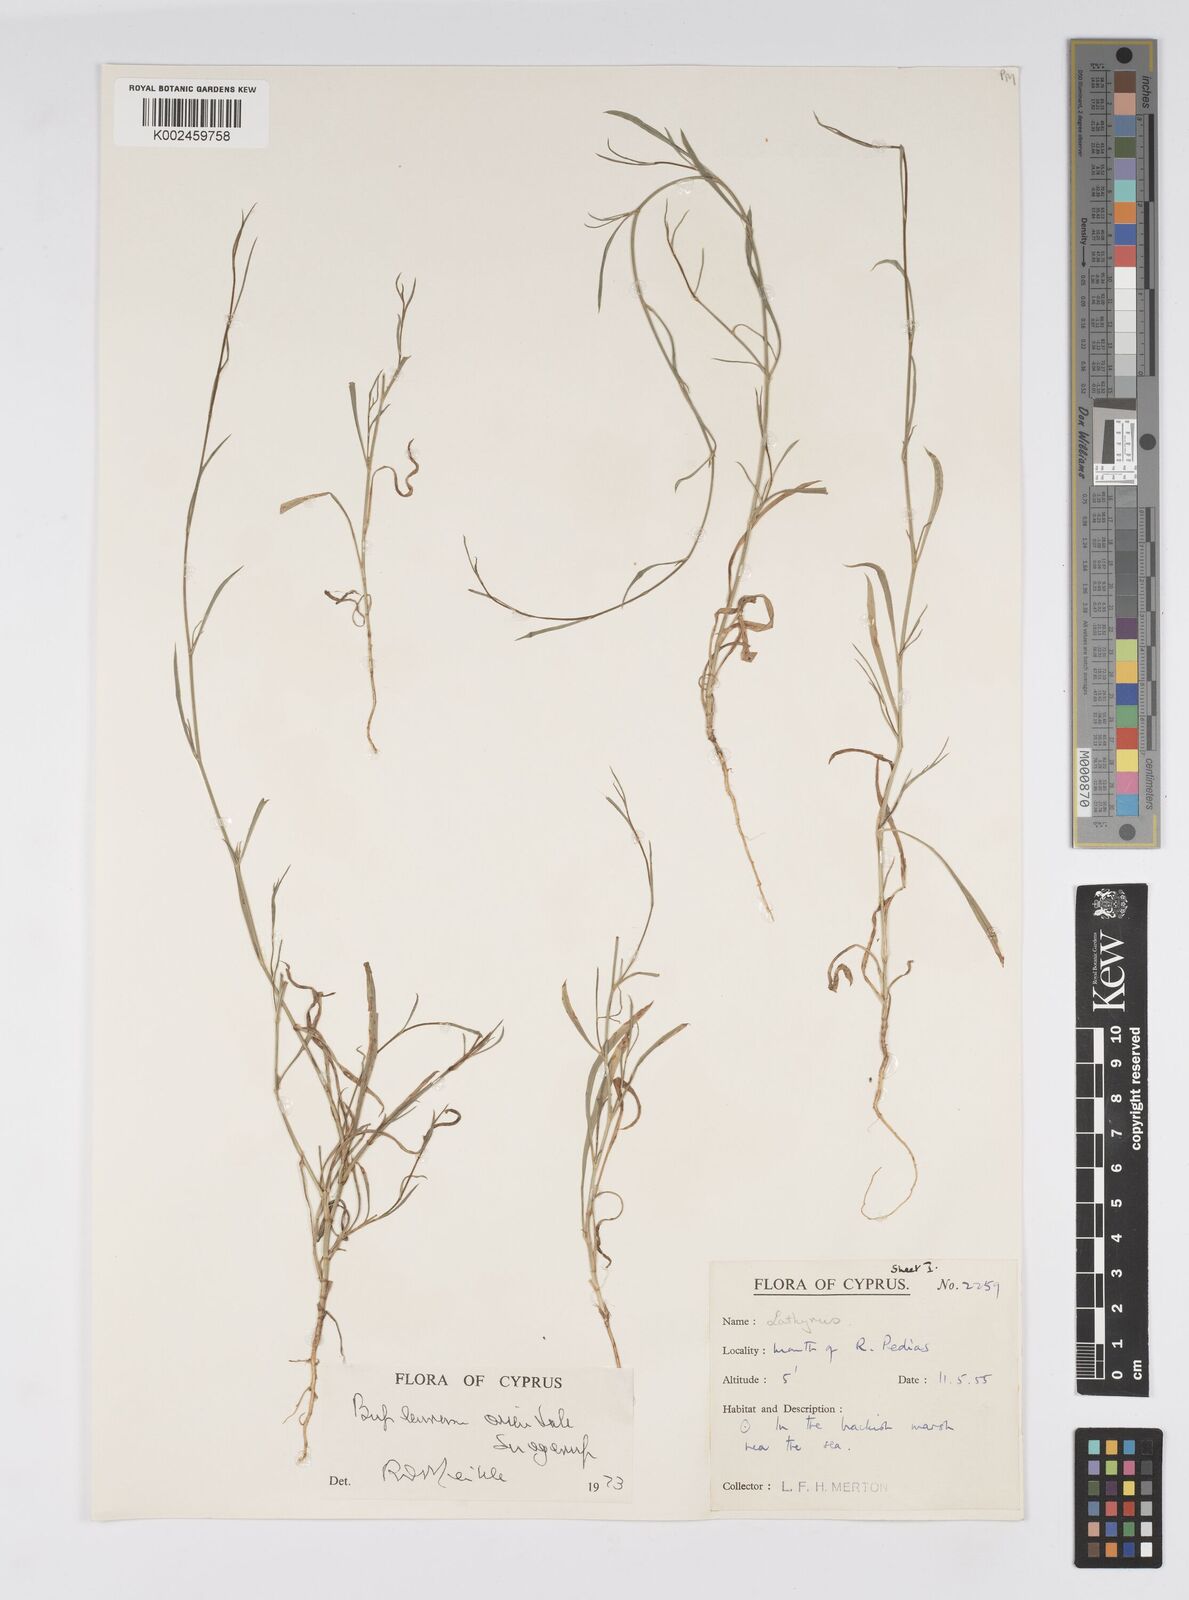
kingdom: Plantae
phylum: Tracheophyta
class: Magnoliopsida
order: Apiales
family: Apiaceae
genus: Bupleurum
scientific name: Bupleurum orientale
